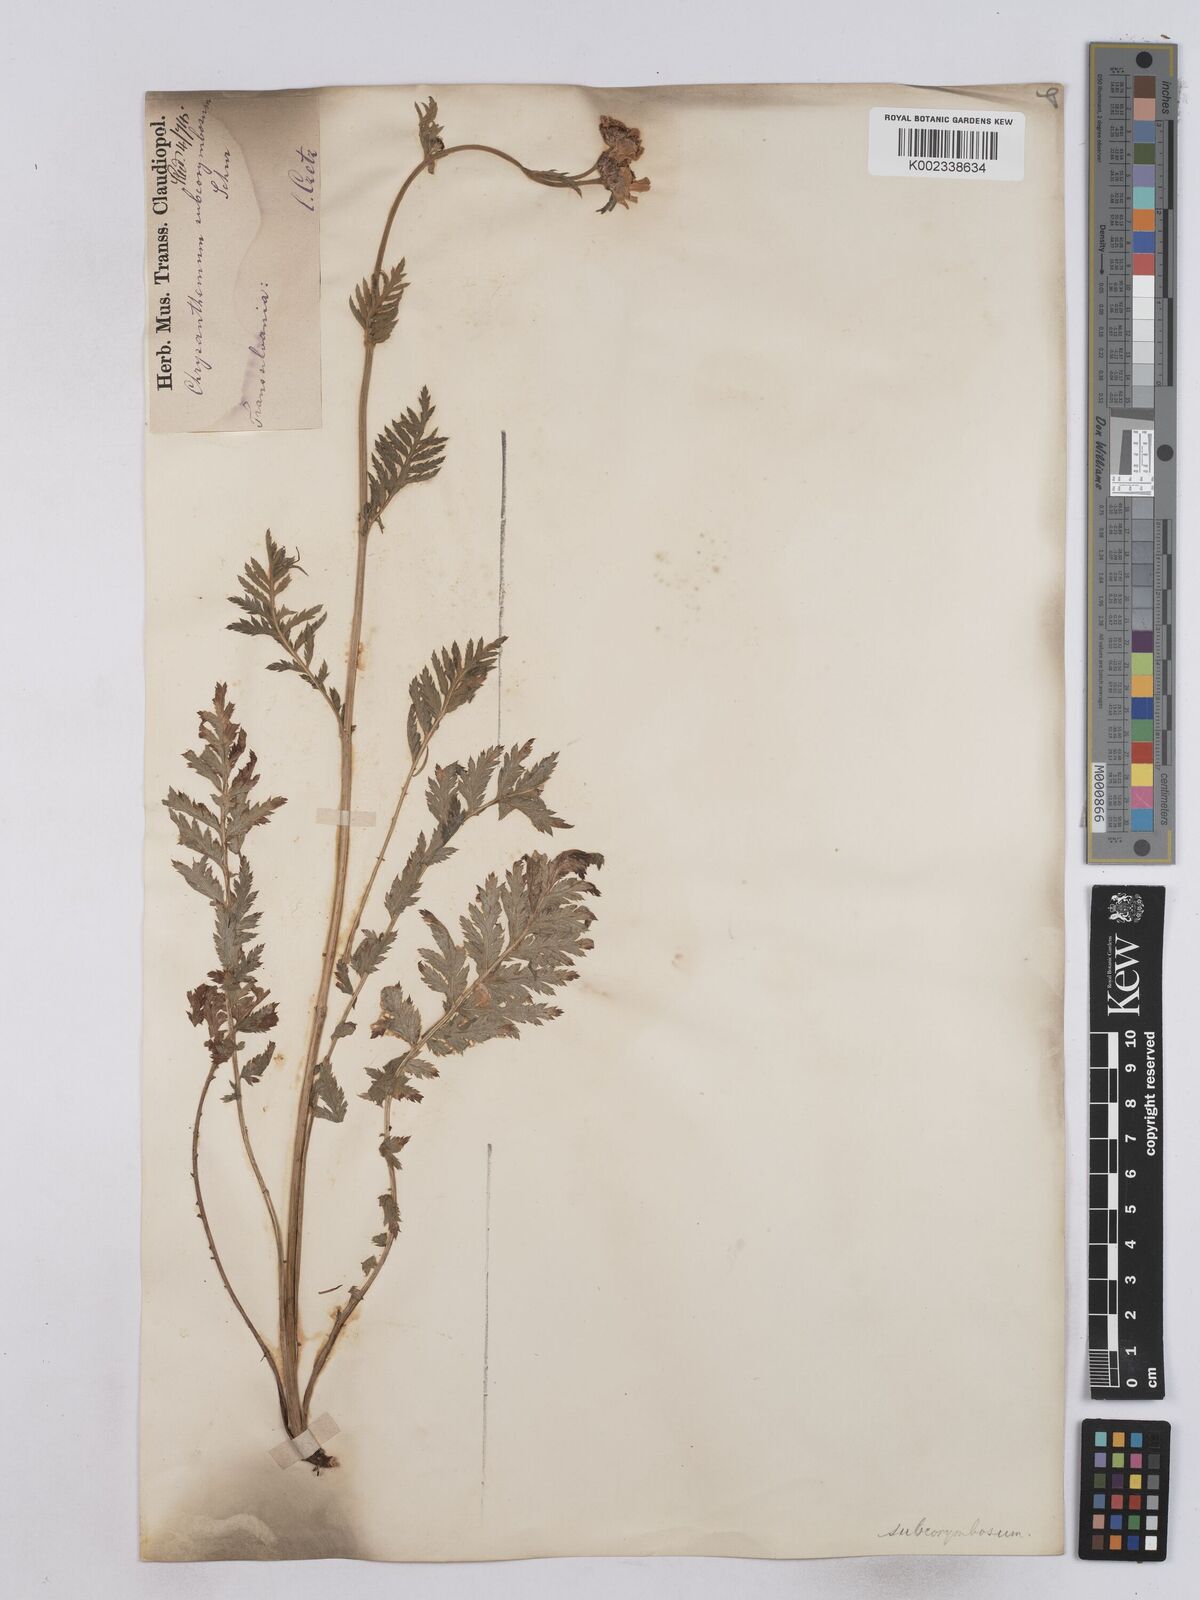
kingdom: Plantae
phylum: Tracheophyta
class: Magnoliopsida
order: Asterales
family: Asteraceae
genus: Tanacetum
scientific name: Tanacetum corymbosum
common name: Scentless feverfew
